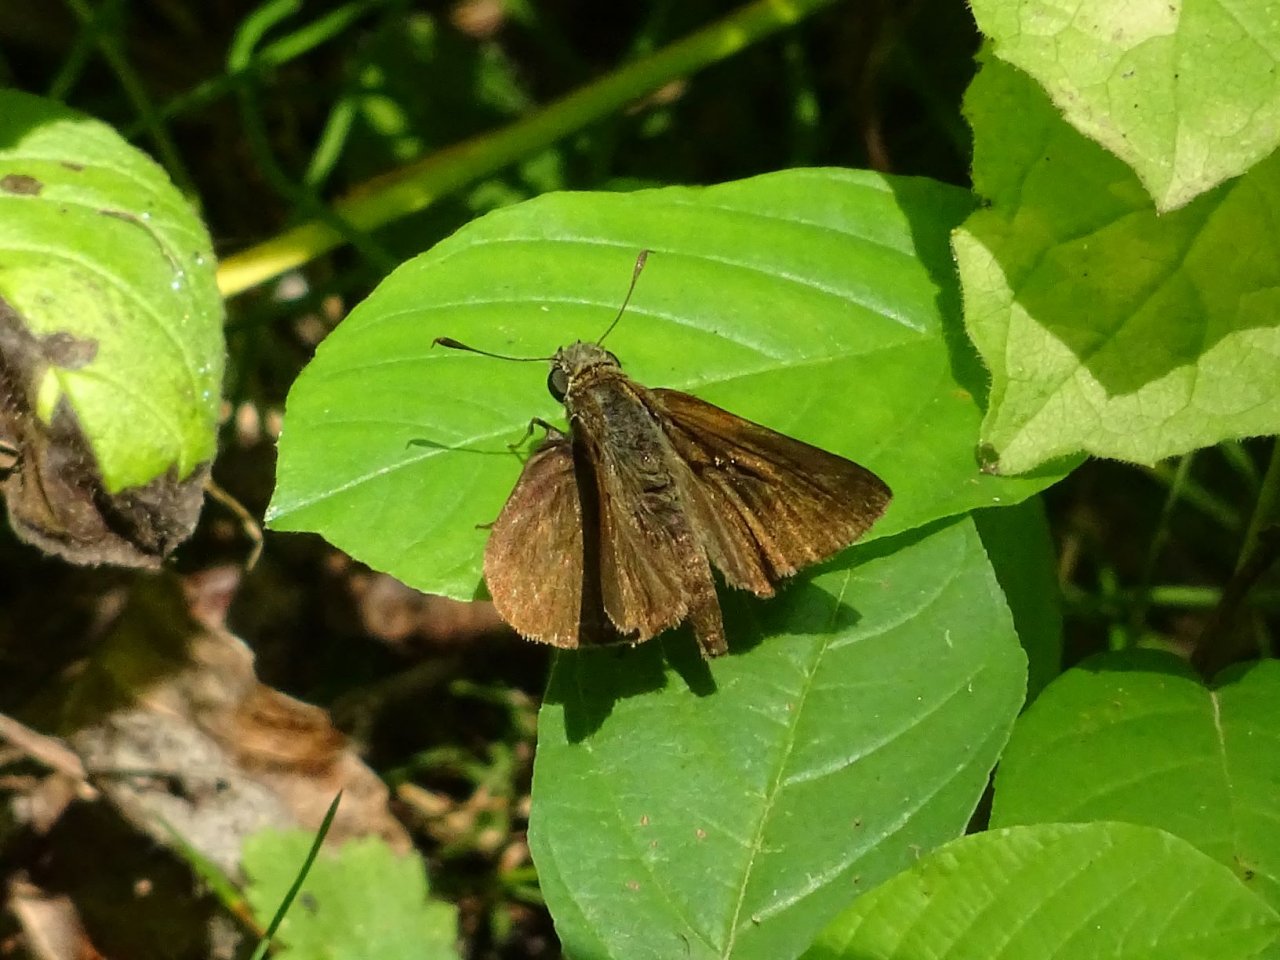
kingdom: Animalia
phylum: Arthropoda
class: Insecta
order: Lepidoptera
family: Hesperiidae
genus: Euphyes
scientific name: Euphyes vestris
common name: Dun Skipper
